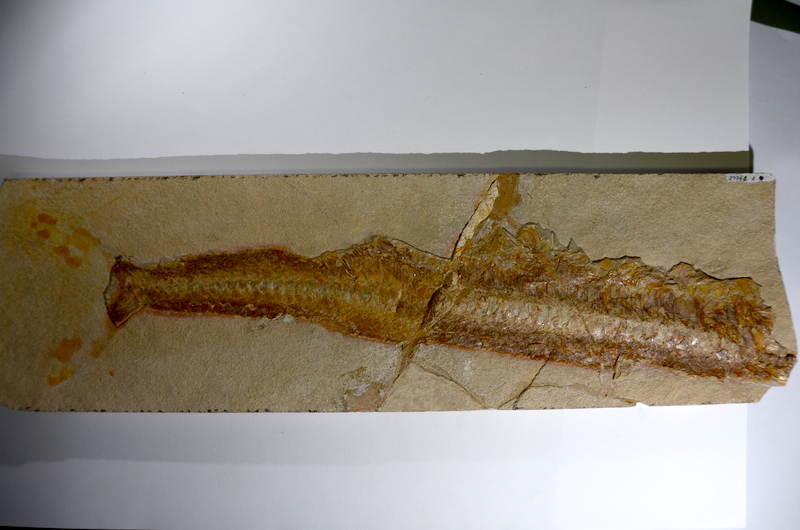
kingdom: Animalia
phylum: Chordata
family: Aspidorhynchidae
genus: Aspidorhynchus
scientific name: Aspidorhynchus acutirostris
